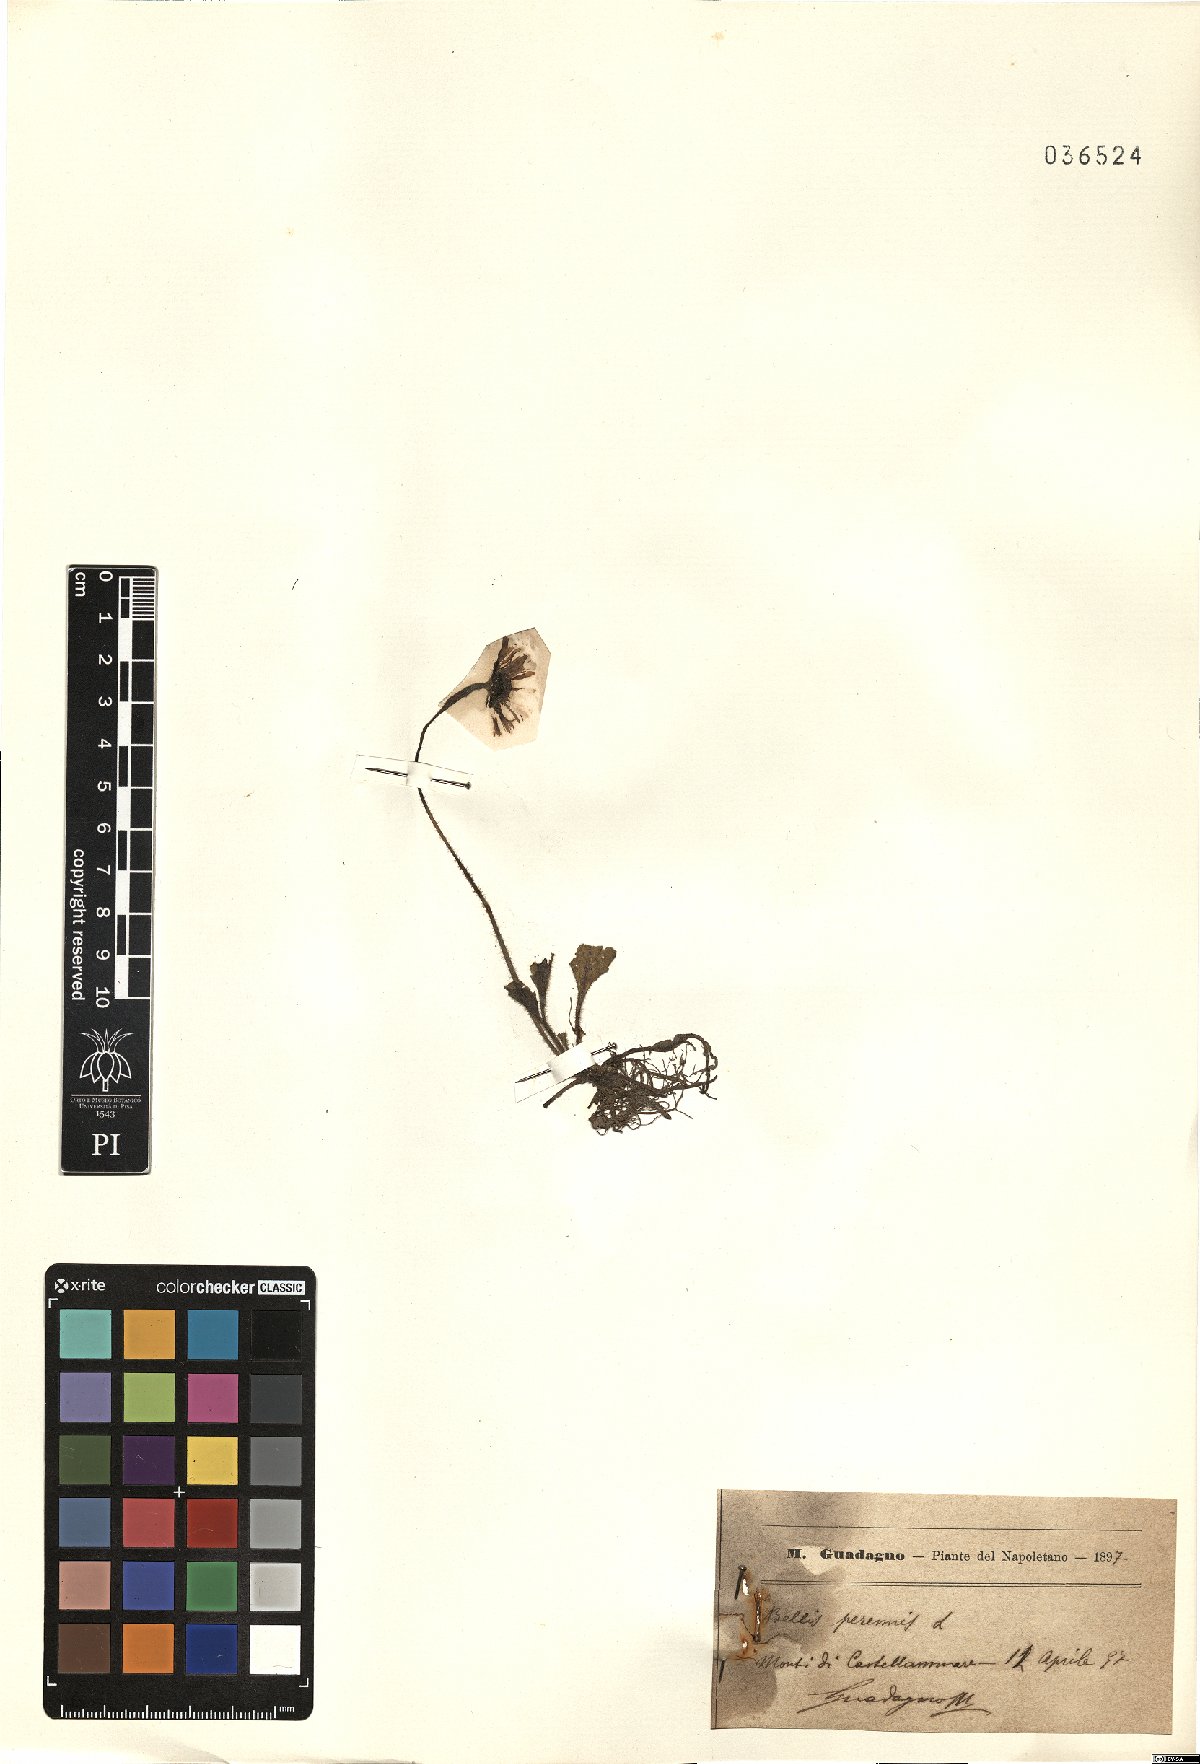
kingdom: Plantae
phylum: Tracheophyta
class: Magnoliopsida
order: Asterales
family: Asteraceae
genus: Bellis
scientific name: Bellis perennis
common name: Lawndaisy
